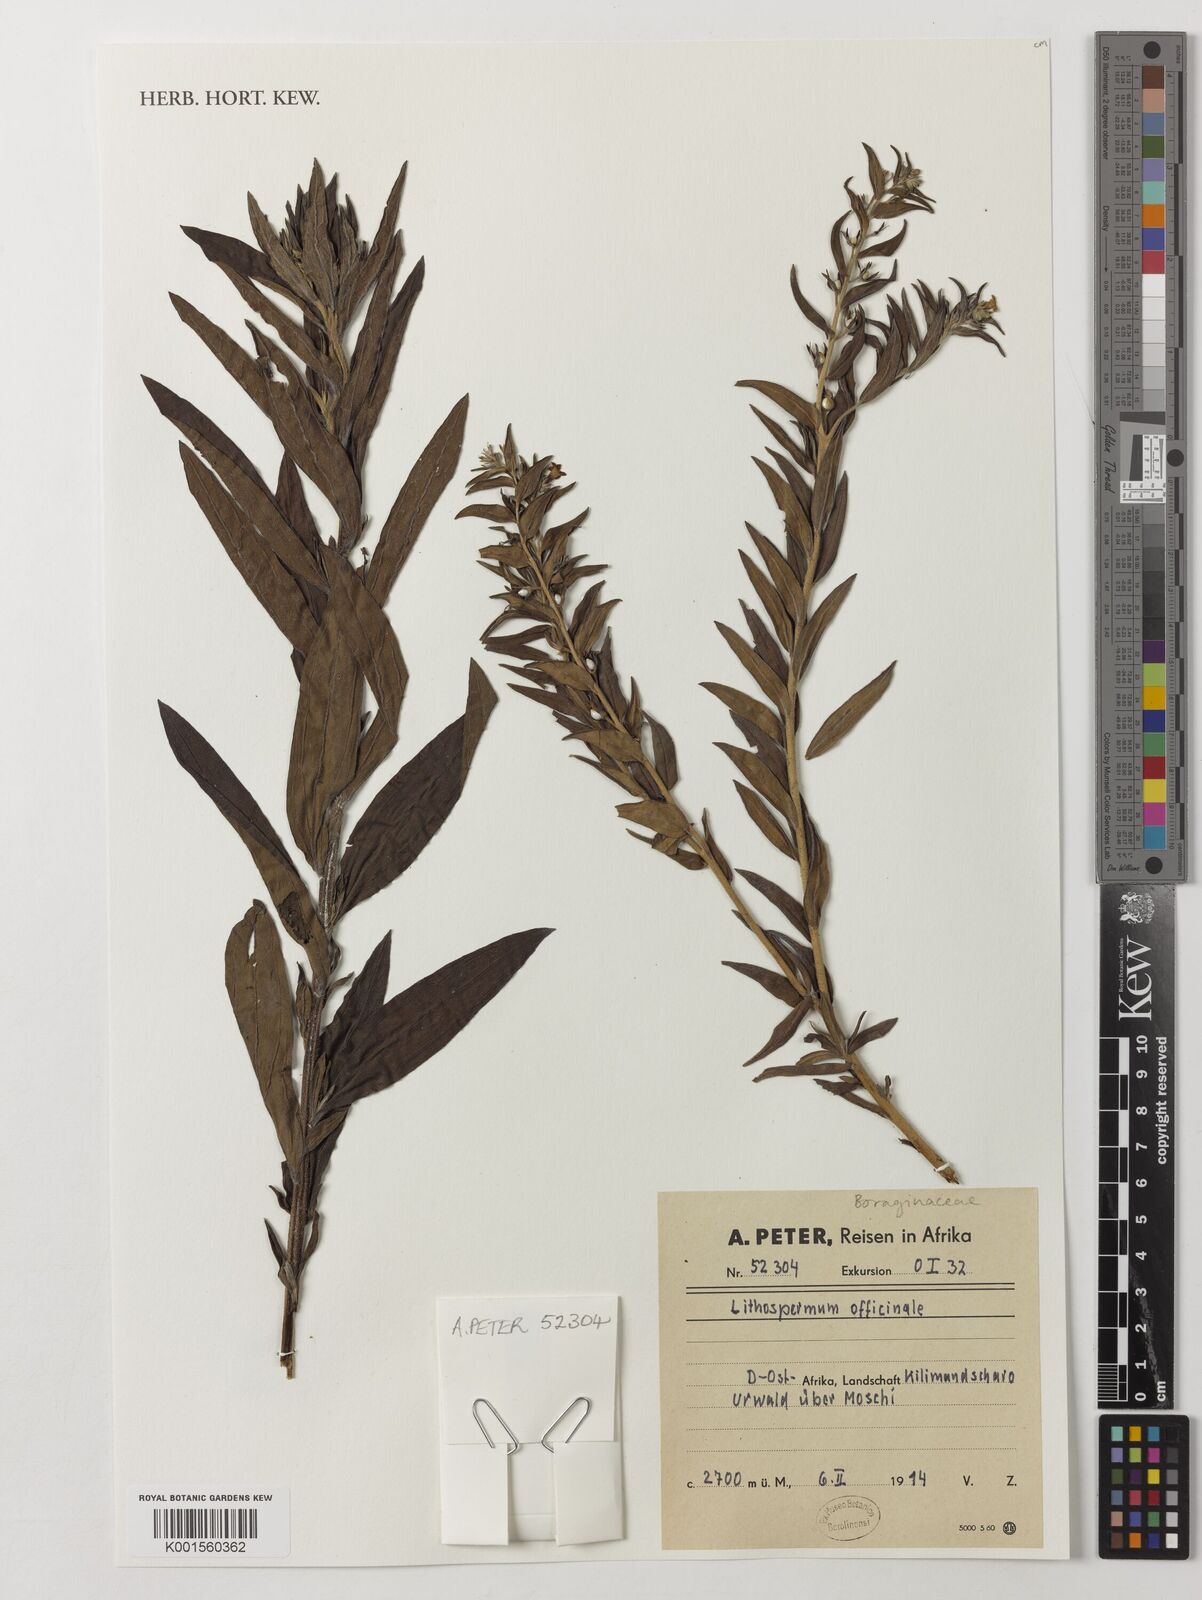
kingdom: Plantae
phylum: Tracheophyta
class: Magnoliopsida
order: Boraginales
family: Boraginaceae
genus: Lithospermum
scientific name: Lithospermum officinale
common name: Common gromwell
